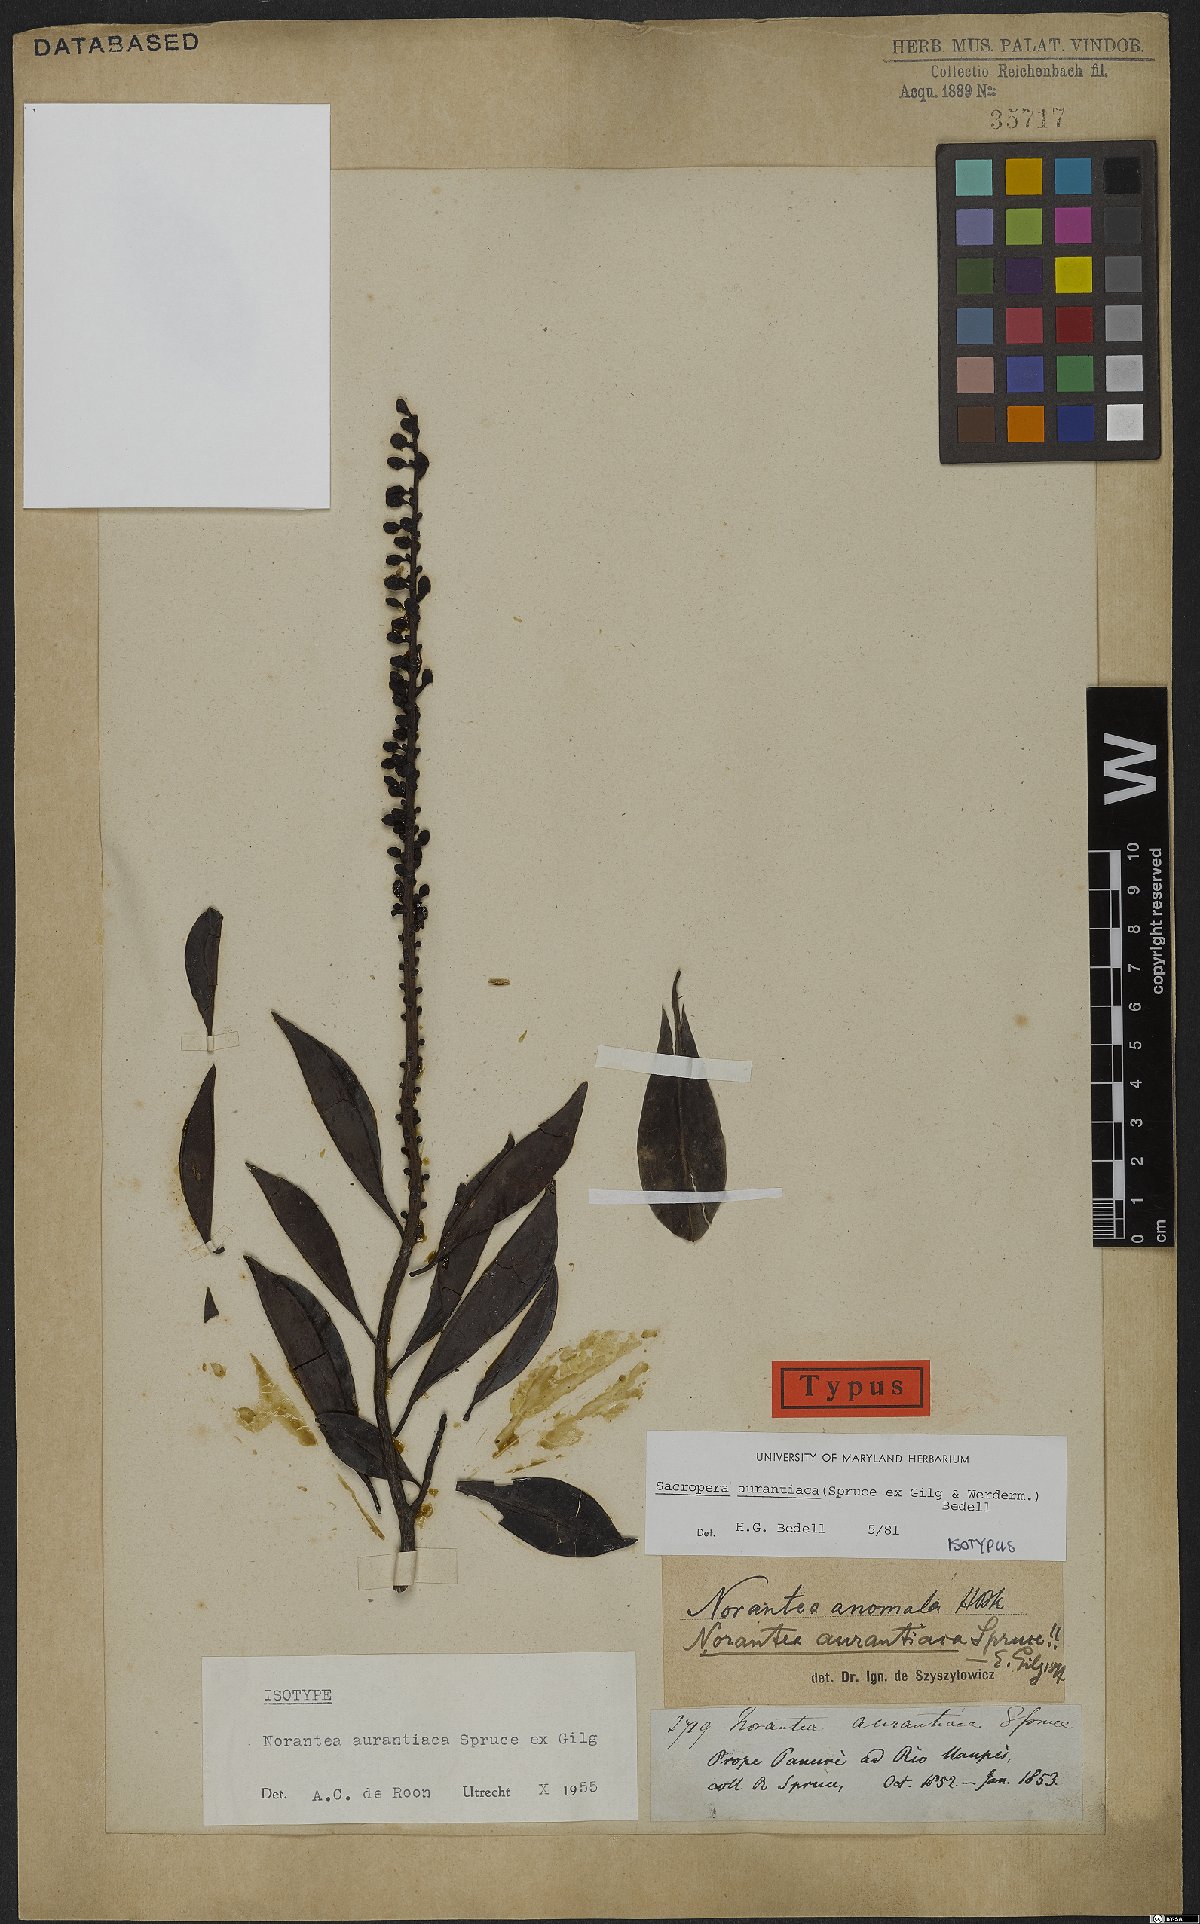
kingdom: Plantae
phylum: Tracheophyta
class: Magnoliopsida
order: Ericales
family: Marcgraviaceae
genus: Sarcopera
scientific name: Sarcopera aurantiaca
